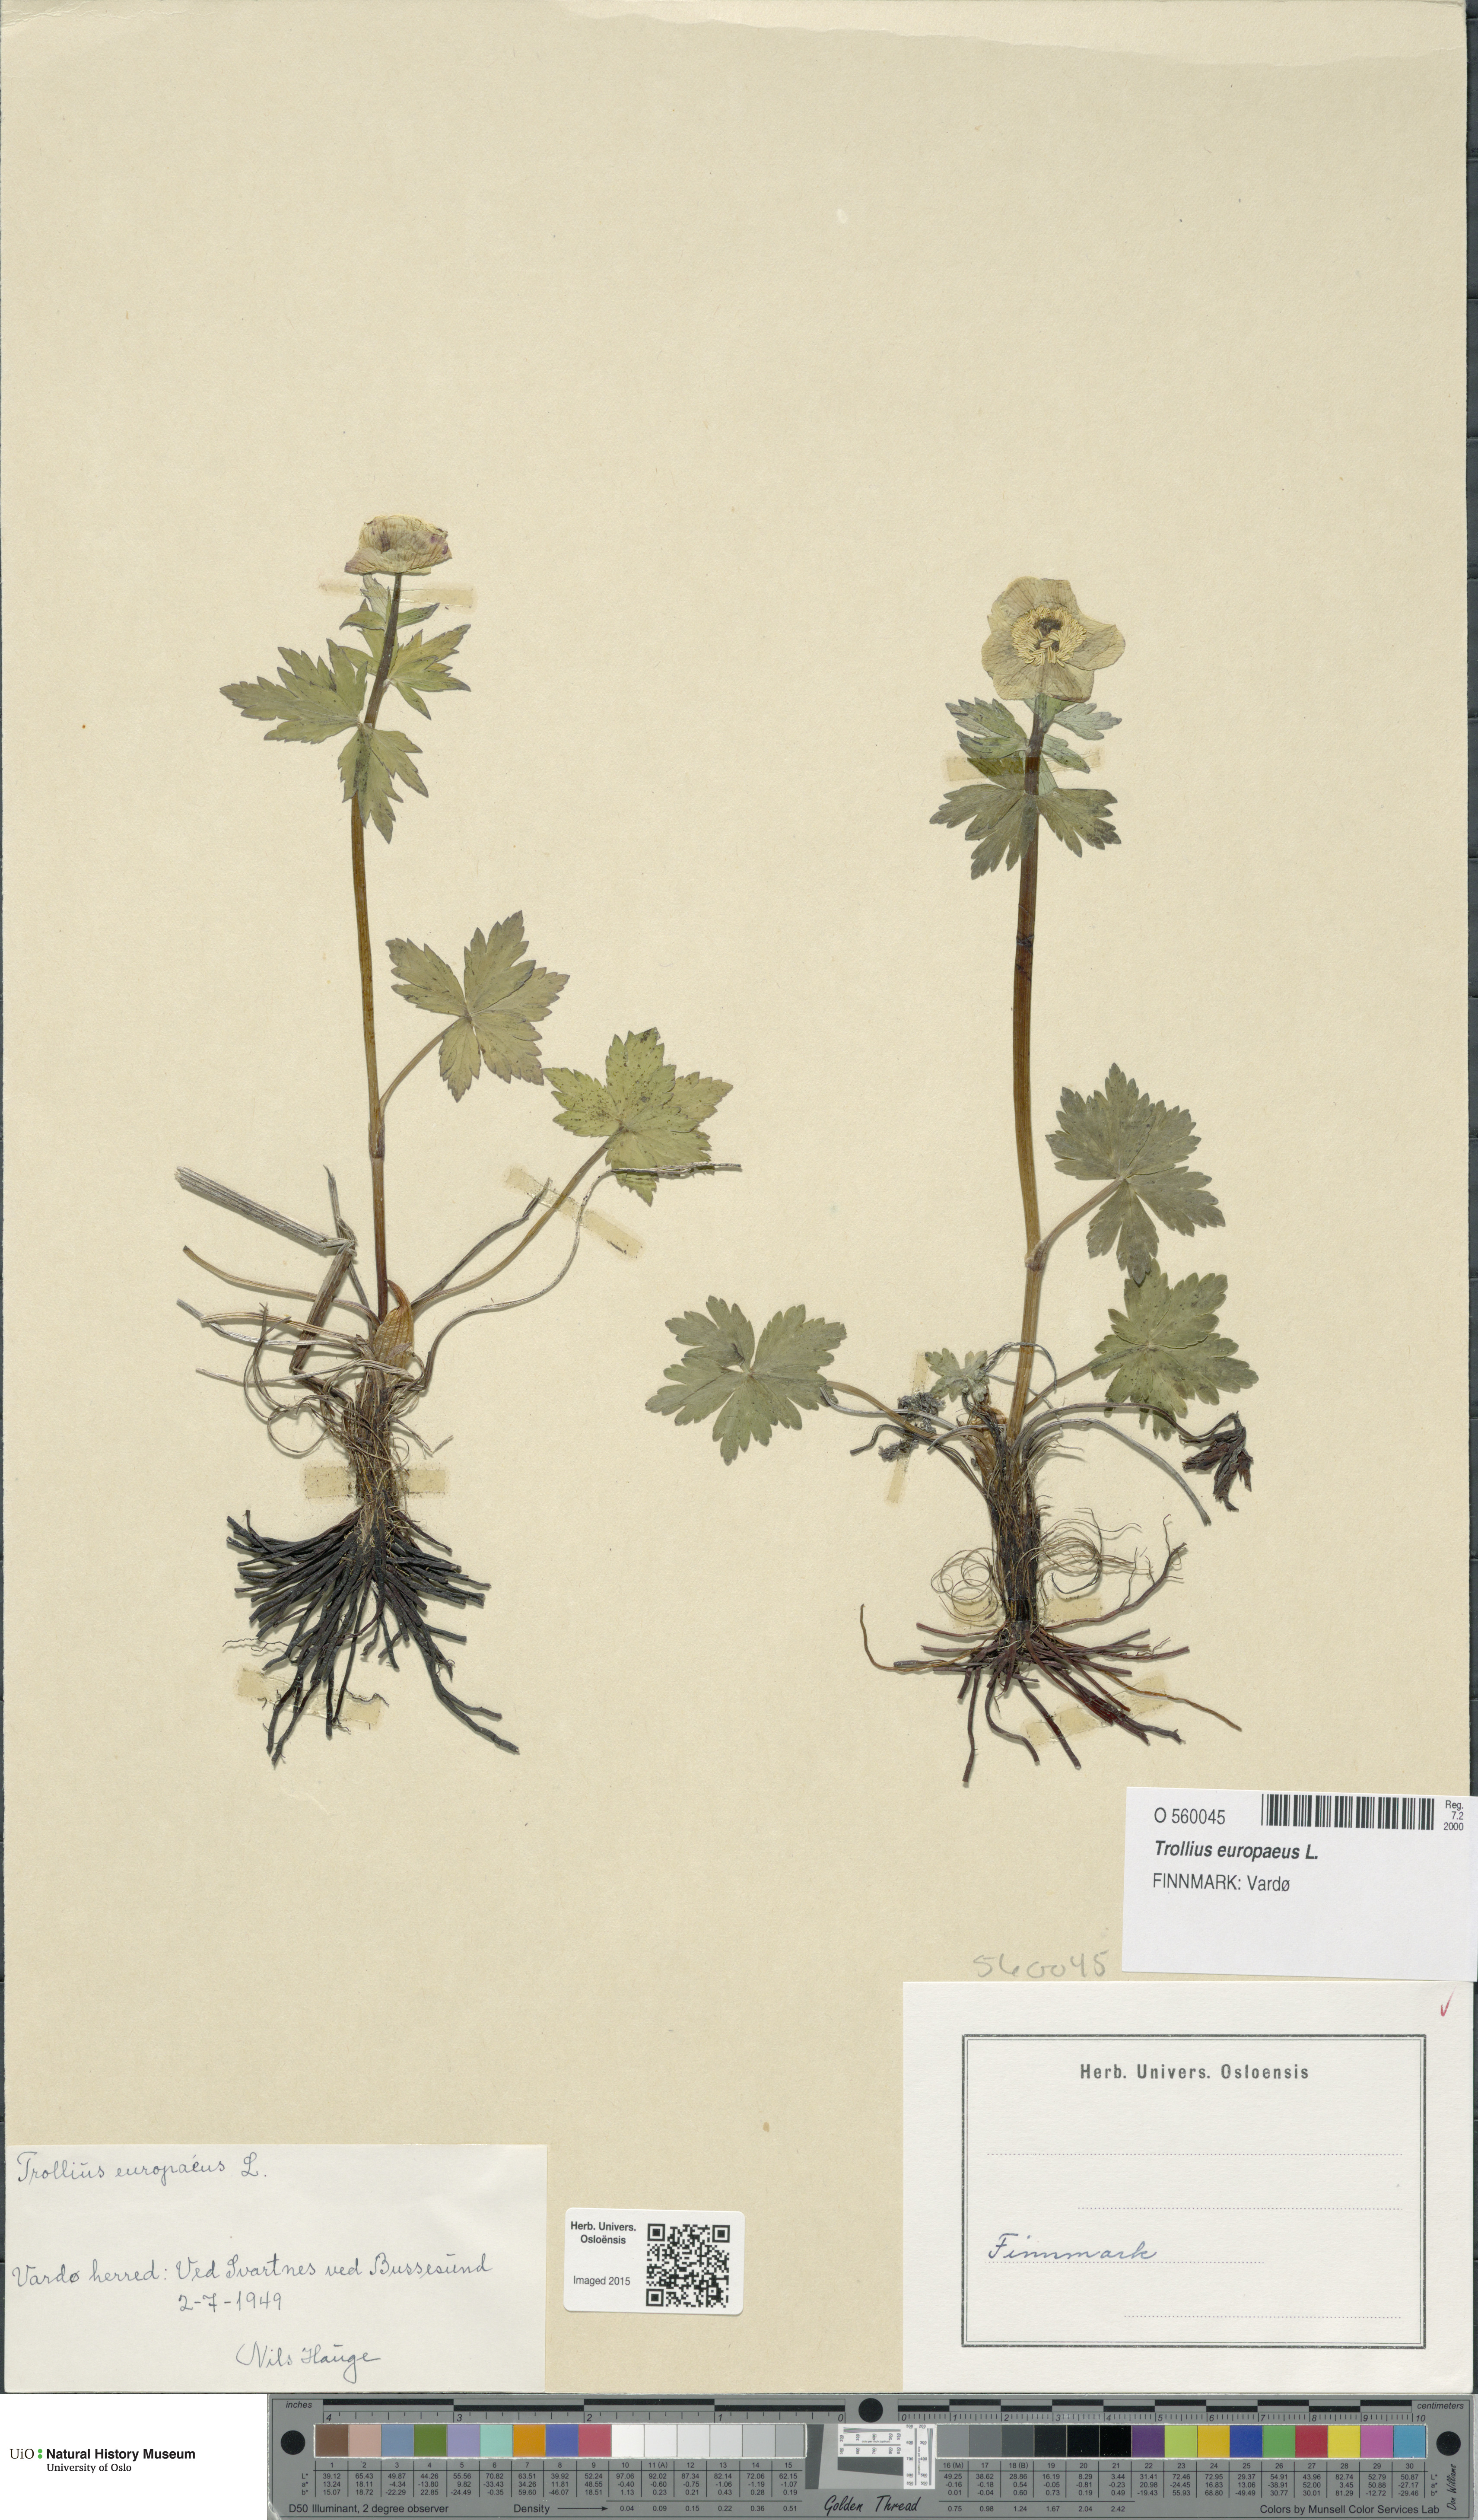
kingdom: Plantae
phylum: Tracheophyta
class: Magnoliopsida
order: Ranunculales
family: Ranunculaceae
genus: Trollius
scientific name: Trollius europaeus
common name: European globeflower
